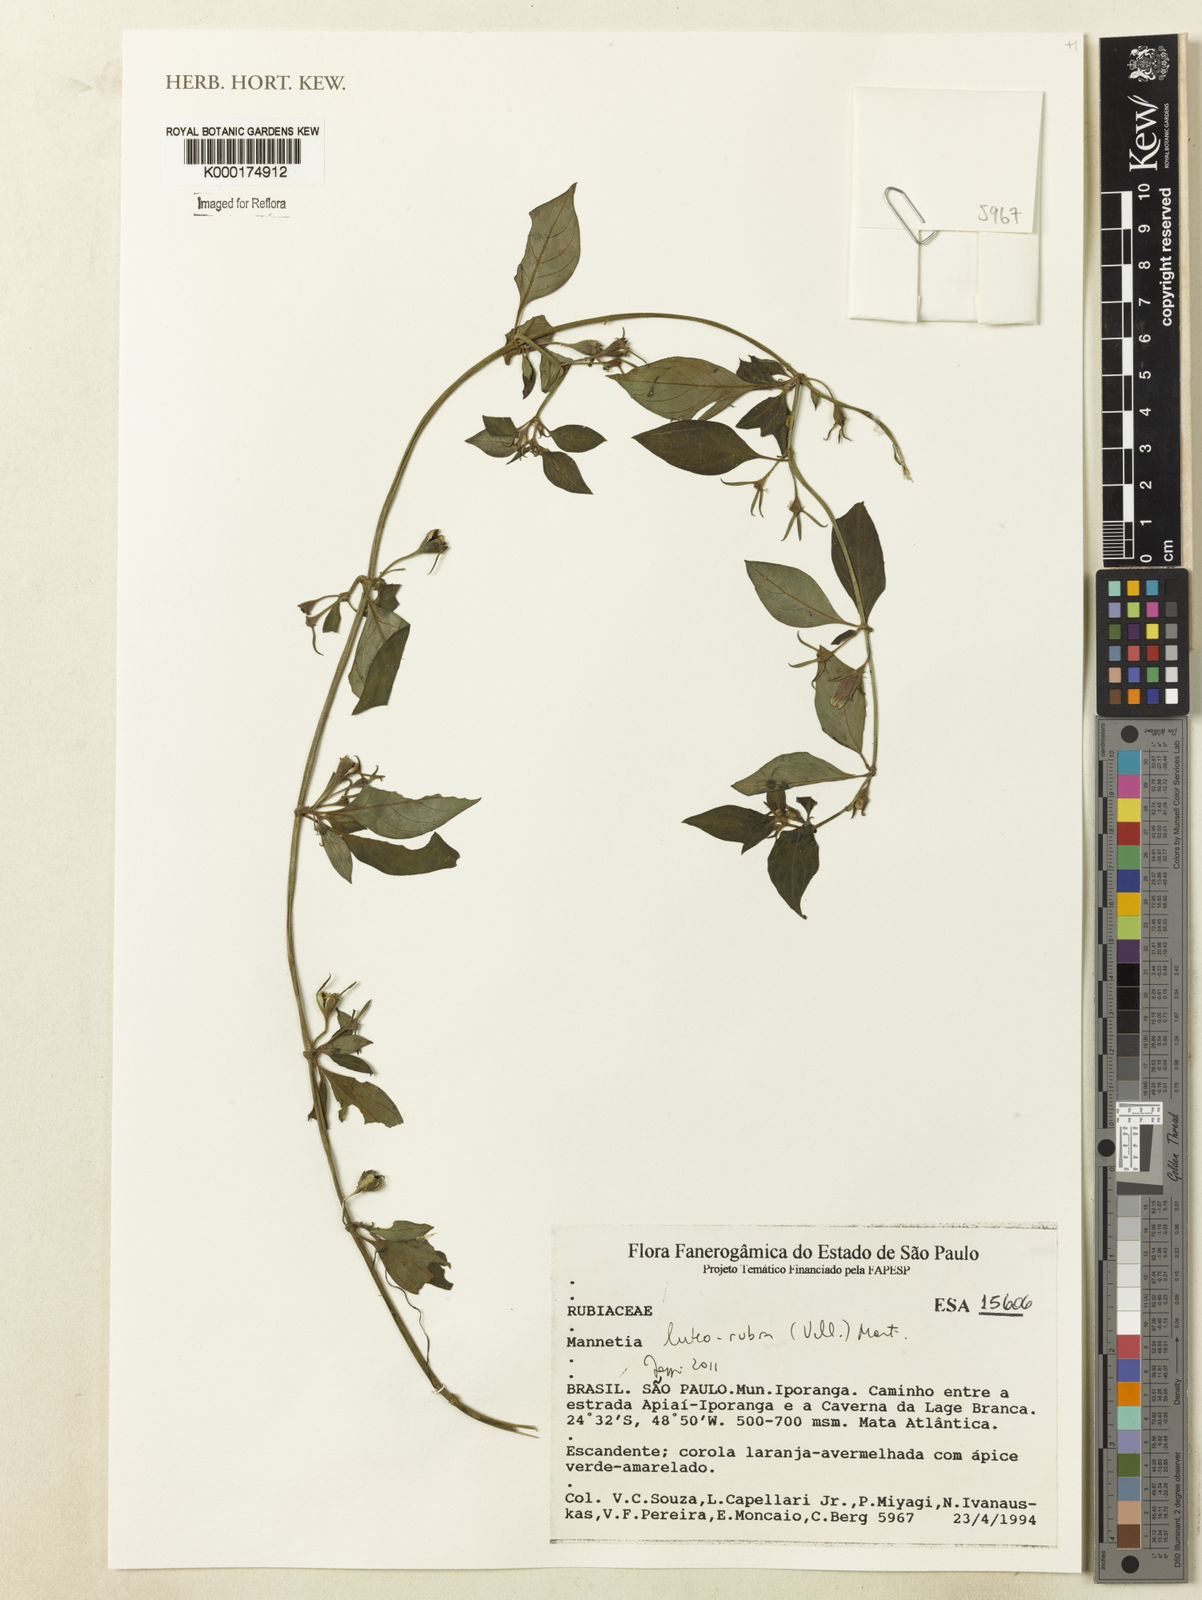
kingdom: Plantae
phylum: Tracheophyta
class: Magnoliopsida
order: Gentianales
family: Rubiaceae
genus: Manettia
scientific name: Manettia luteorubra
